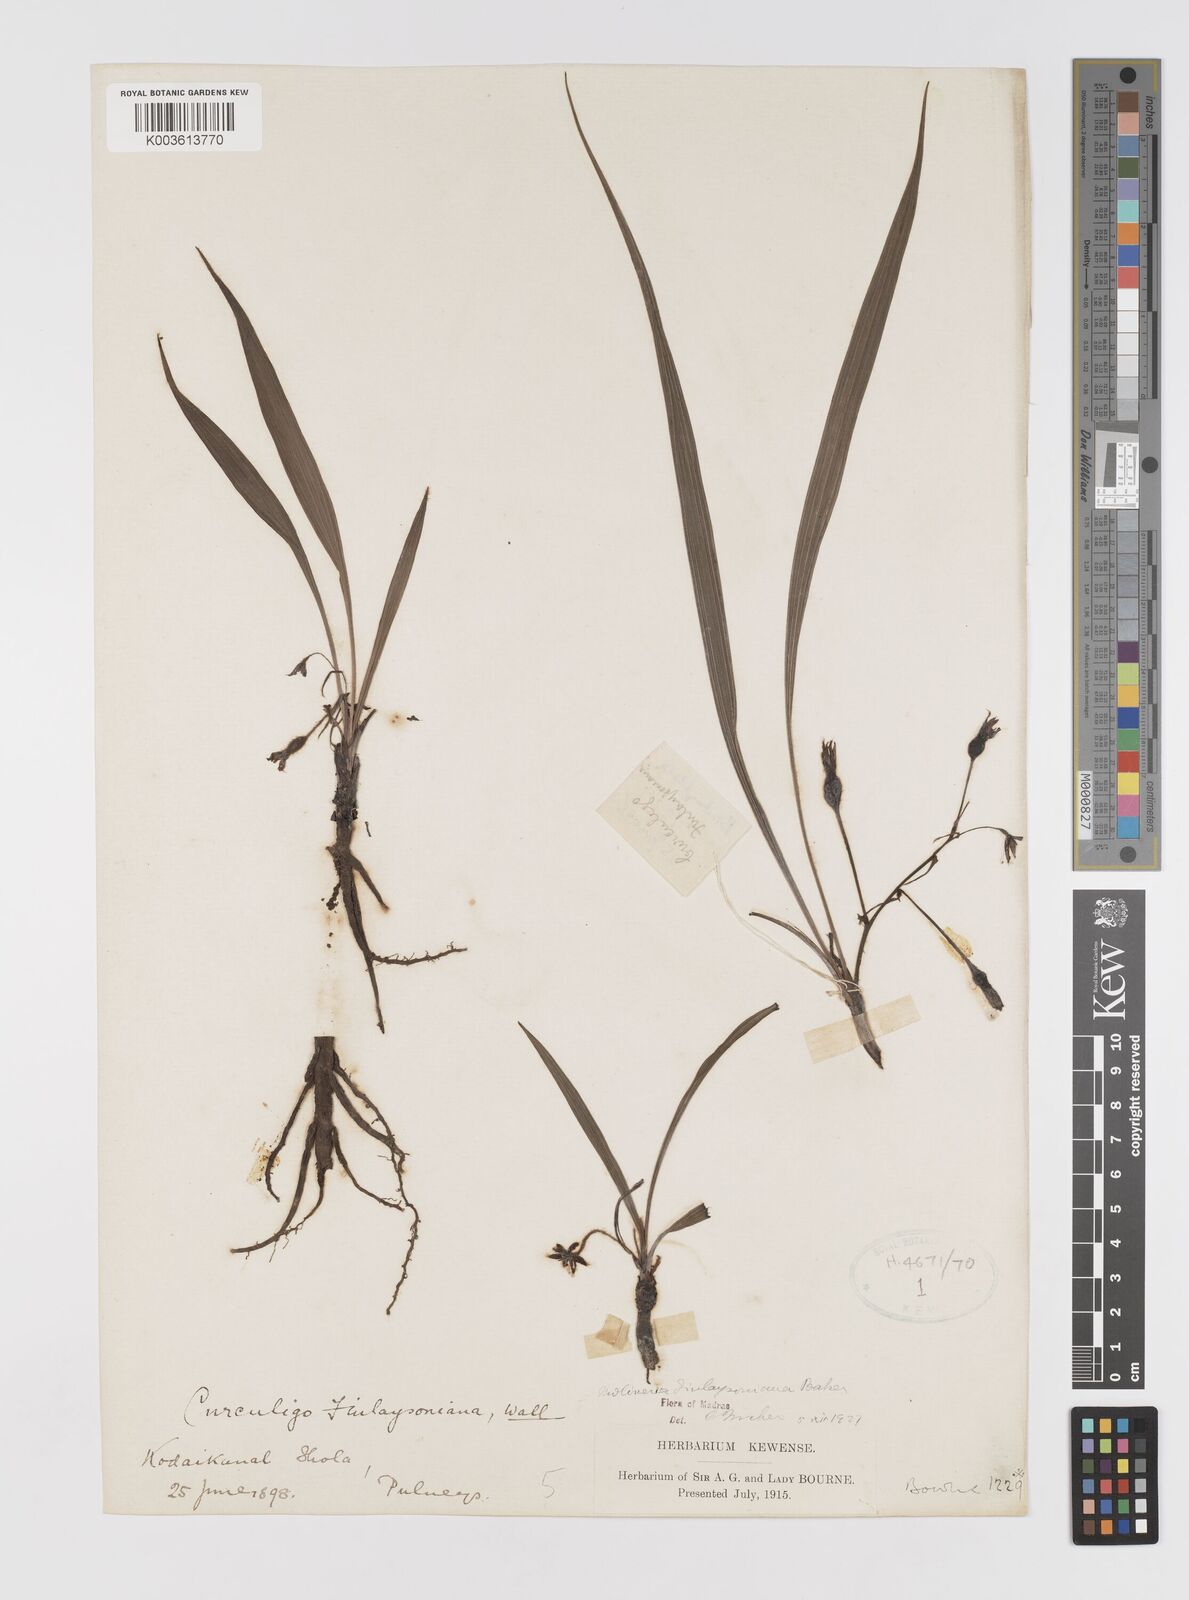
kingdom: Plantae
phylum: Tracheophyta
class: Liliopsida
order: Asparagales
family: Hypoxidaceae
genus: Curculigo
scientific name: Curculigo trichocarpa
